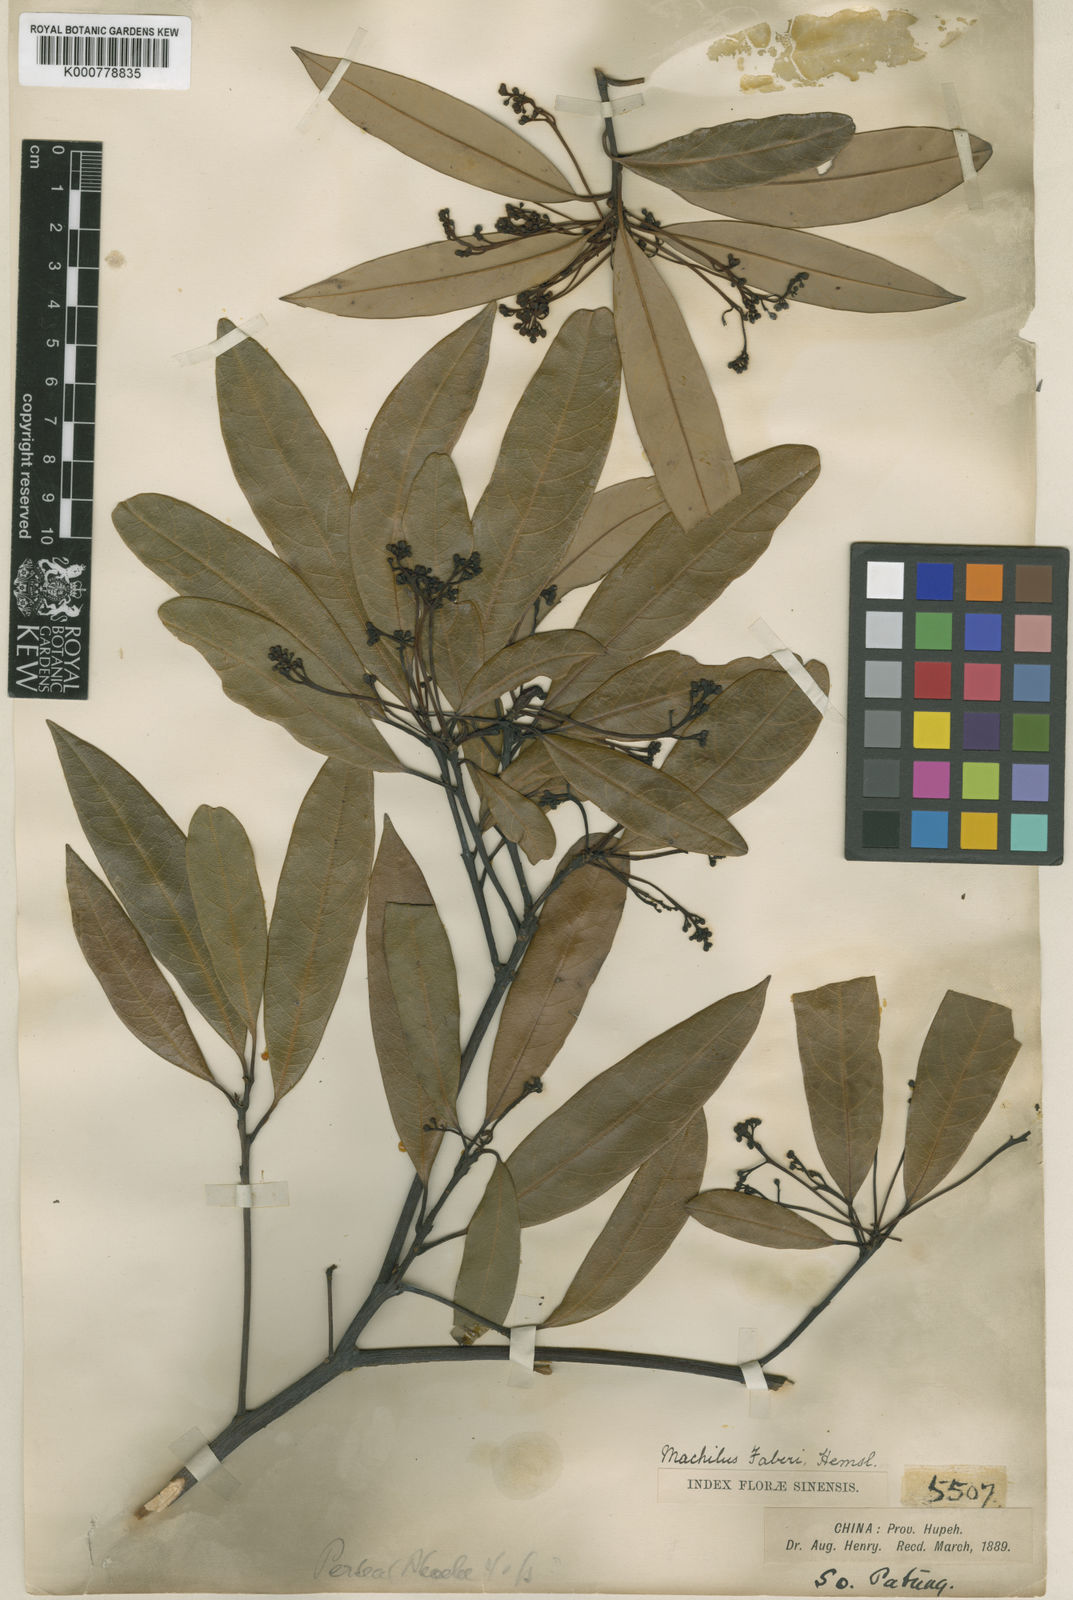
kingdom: Plantae
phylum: Tracheophyta
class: Magnoliopsida
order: Laurales
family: Lauraceae
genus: Phoebe
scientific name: Phoebe faberi
